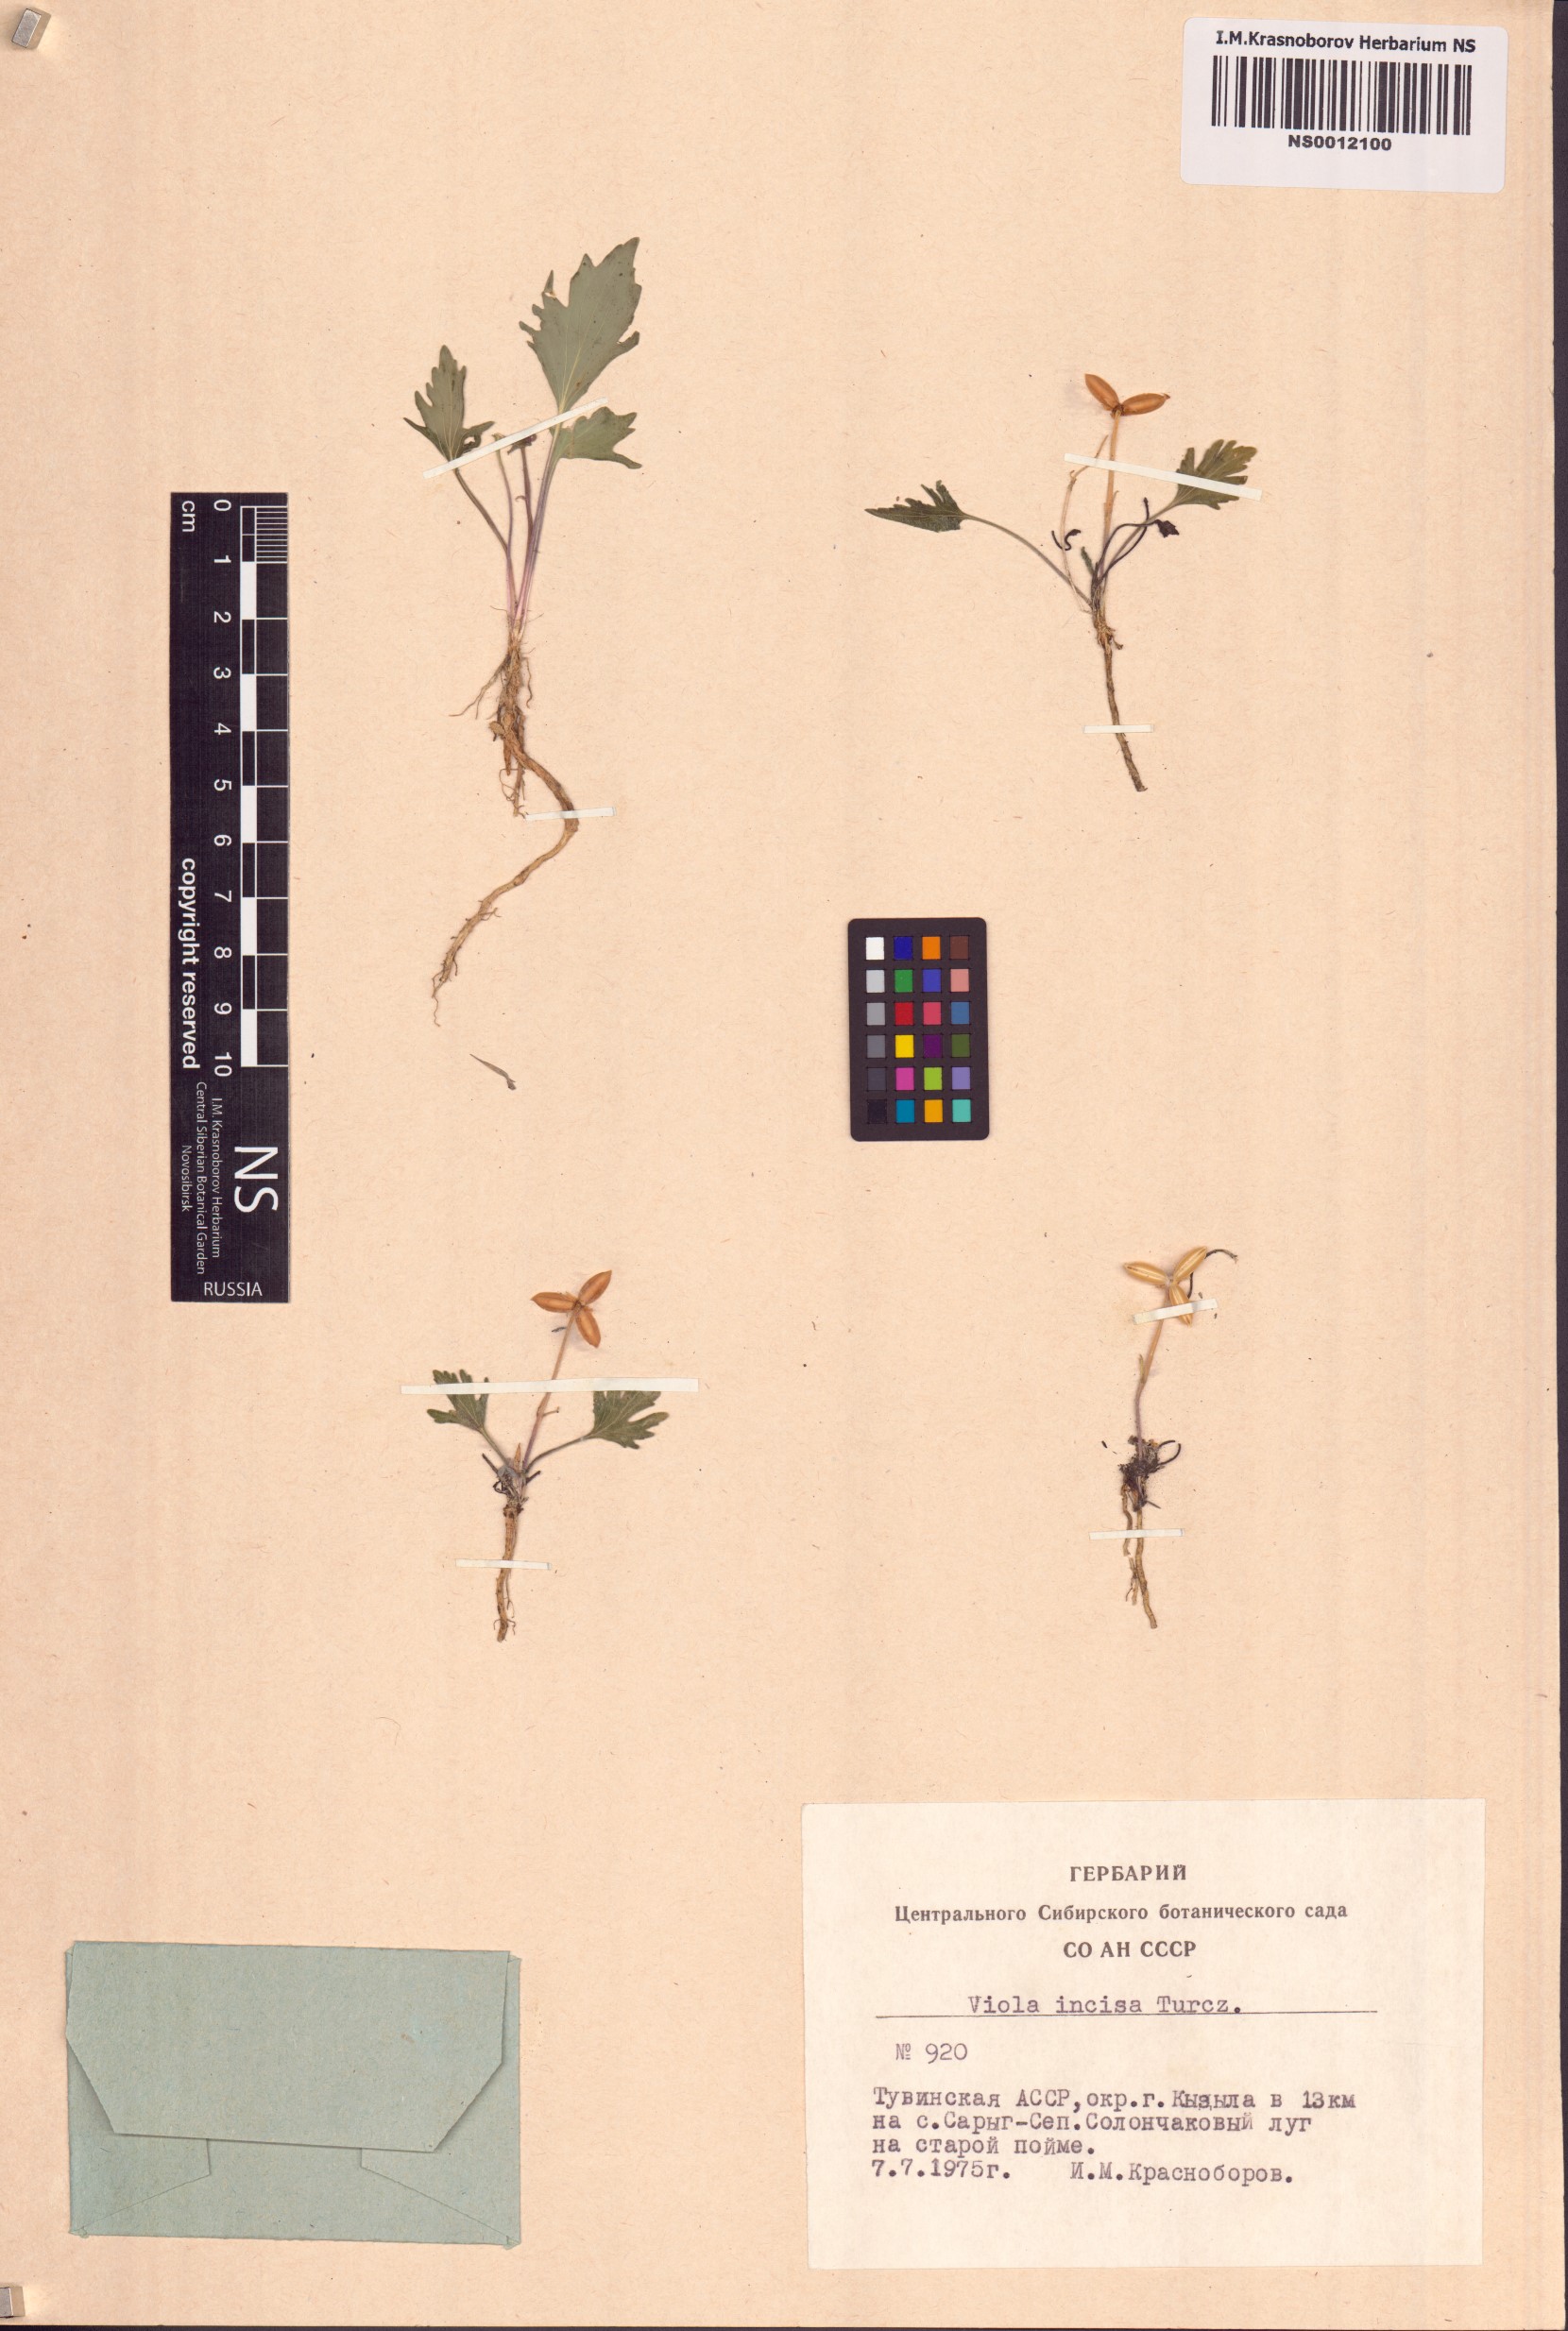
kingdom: Plantae
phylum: Tracheophyta
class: Magnoliopsida
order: Malpighiales
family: Violaceae
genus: Viola
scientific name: Viola incisa
